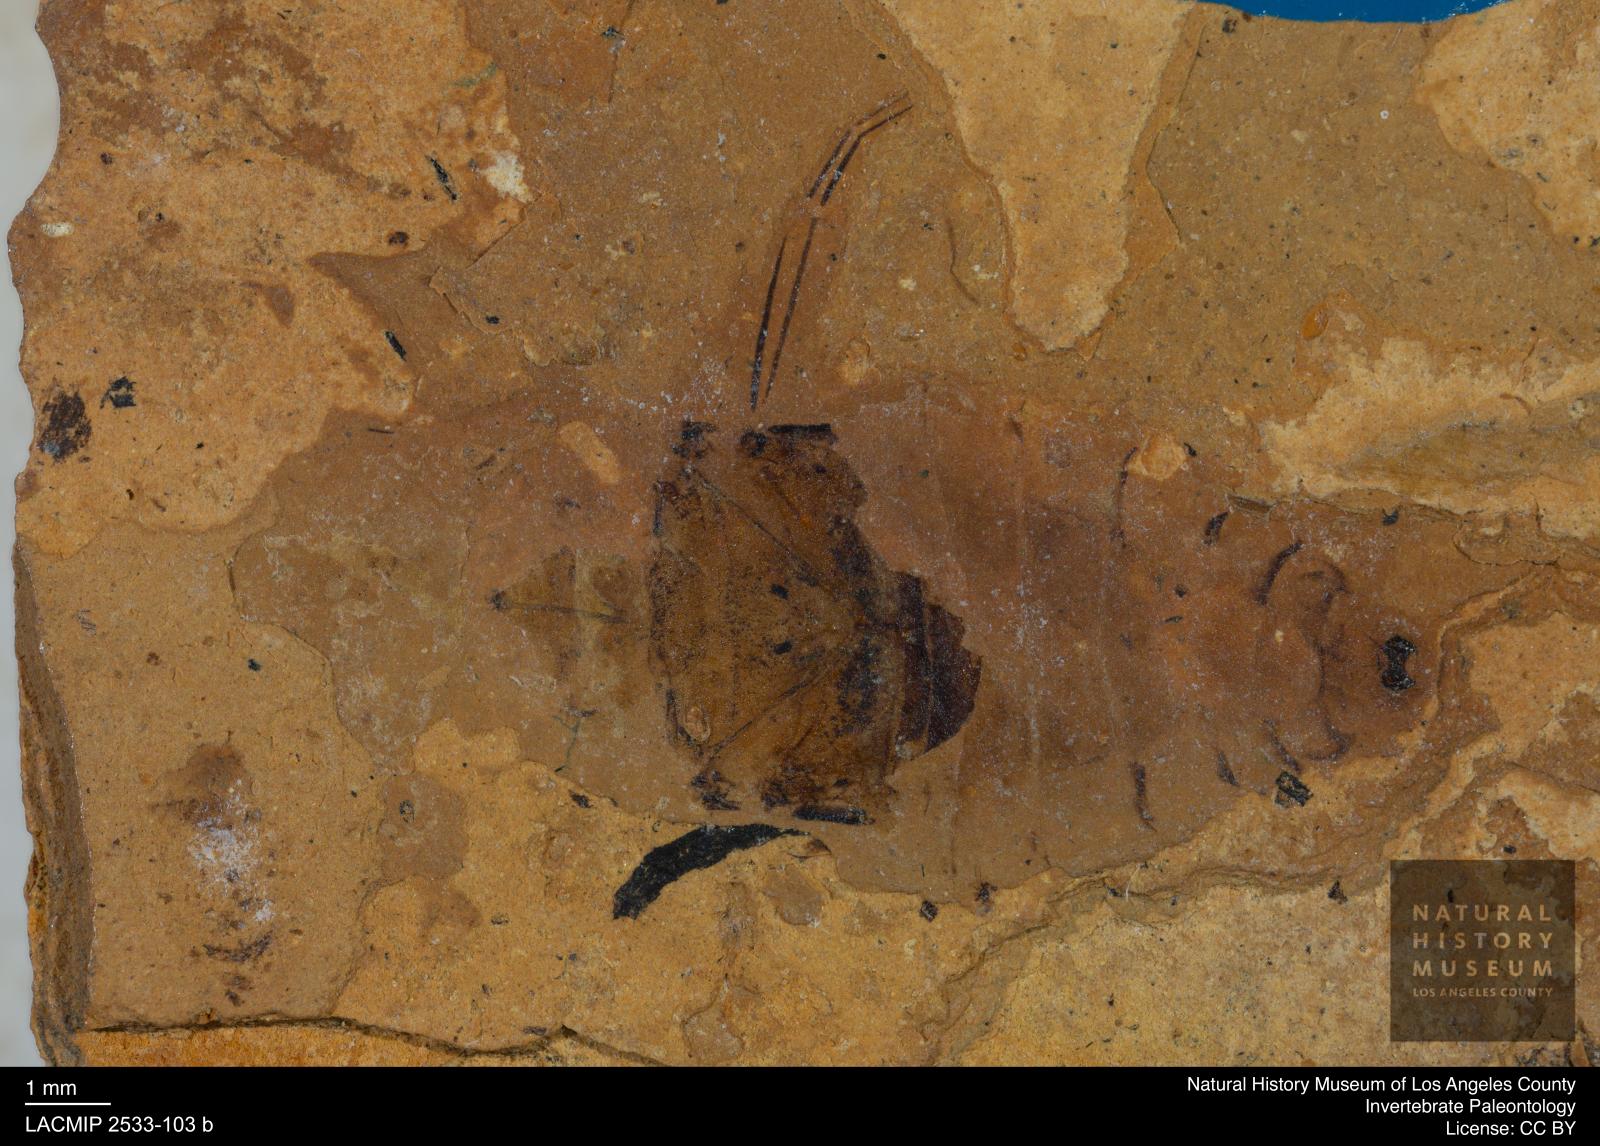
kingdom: Animalia
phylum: Arthropoda
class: Insecta
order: Hemiptera
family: Naucoridae
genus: Naucoris
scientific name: Naucoris rottensis
